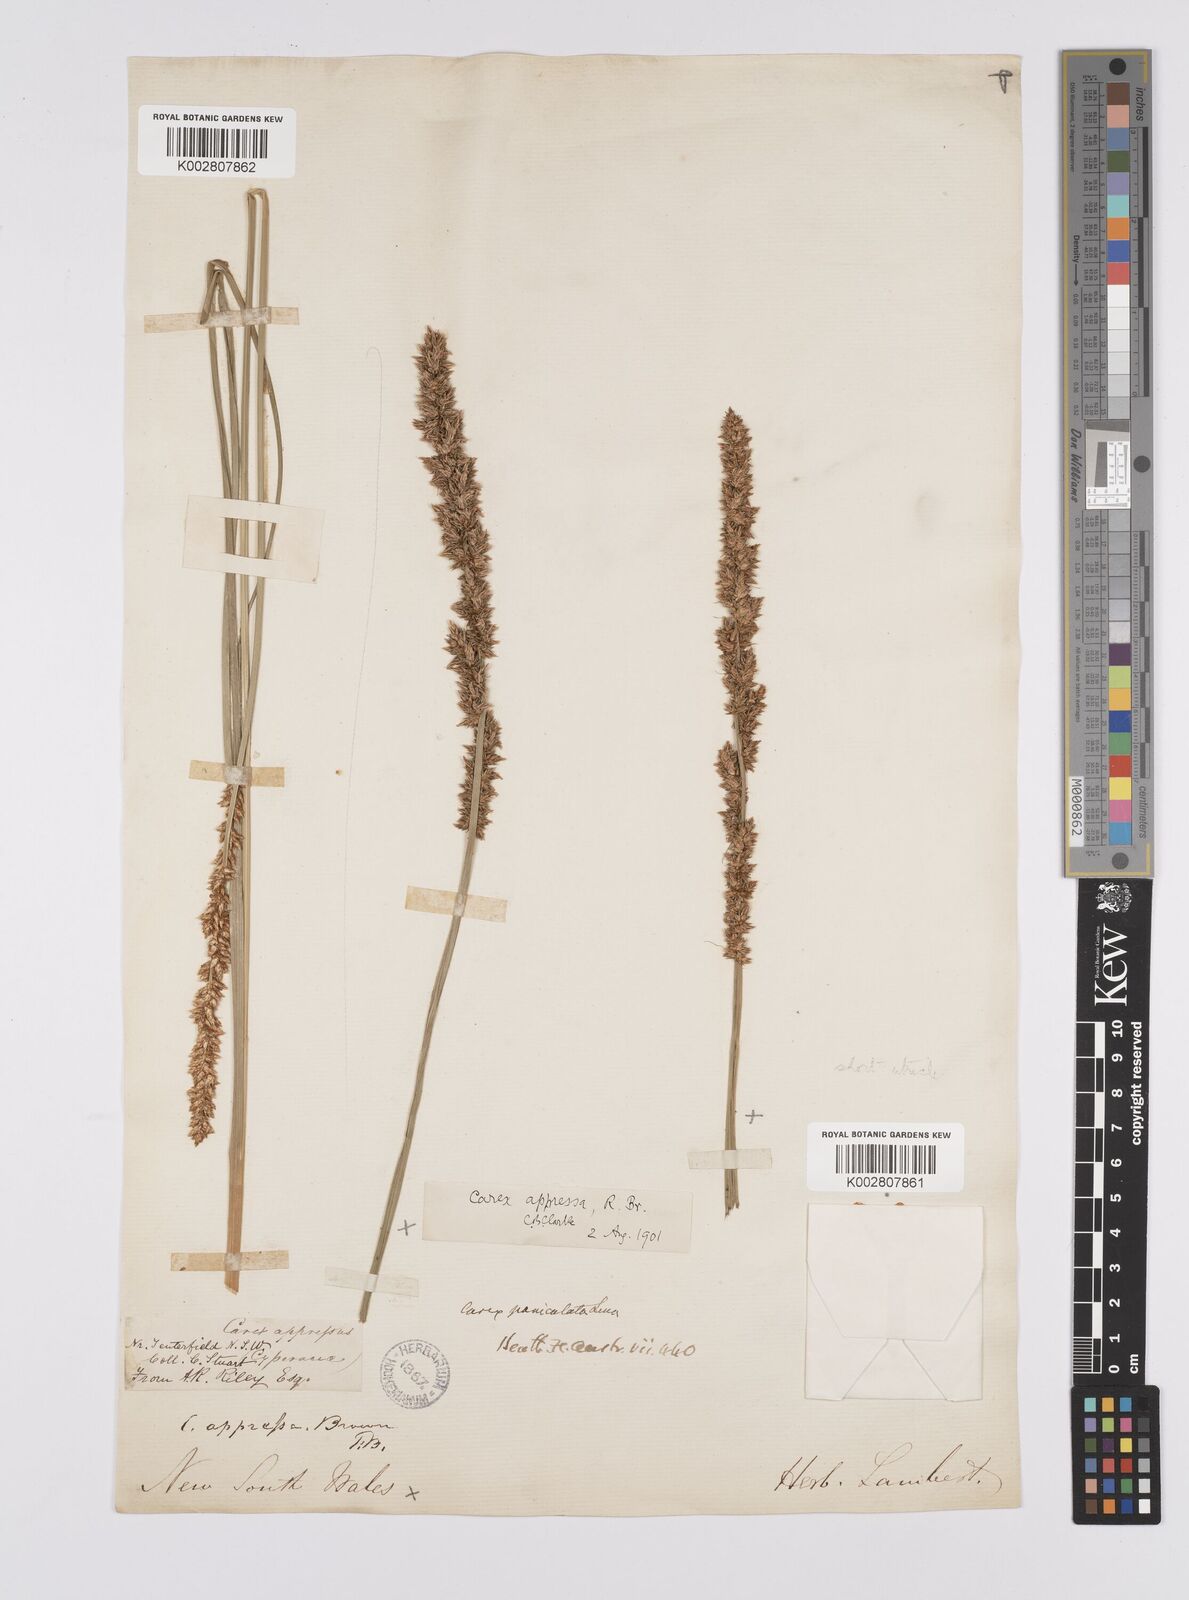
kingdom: Plantae
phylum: Tracheophyta
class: Liliopsida
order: Poales
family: Cyperaceae
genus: Carex
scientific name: Carex appressa
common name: Tussock sedge
